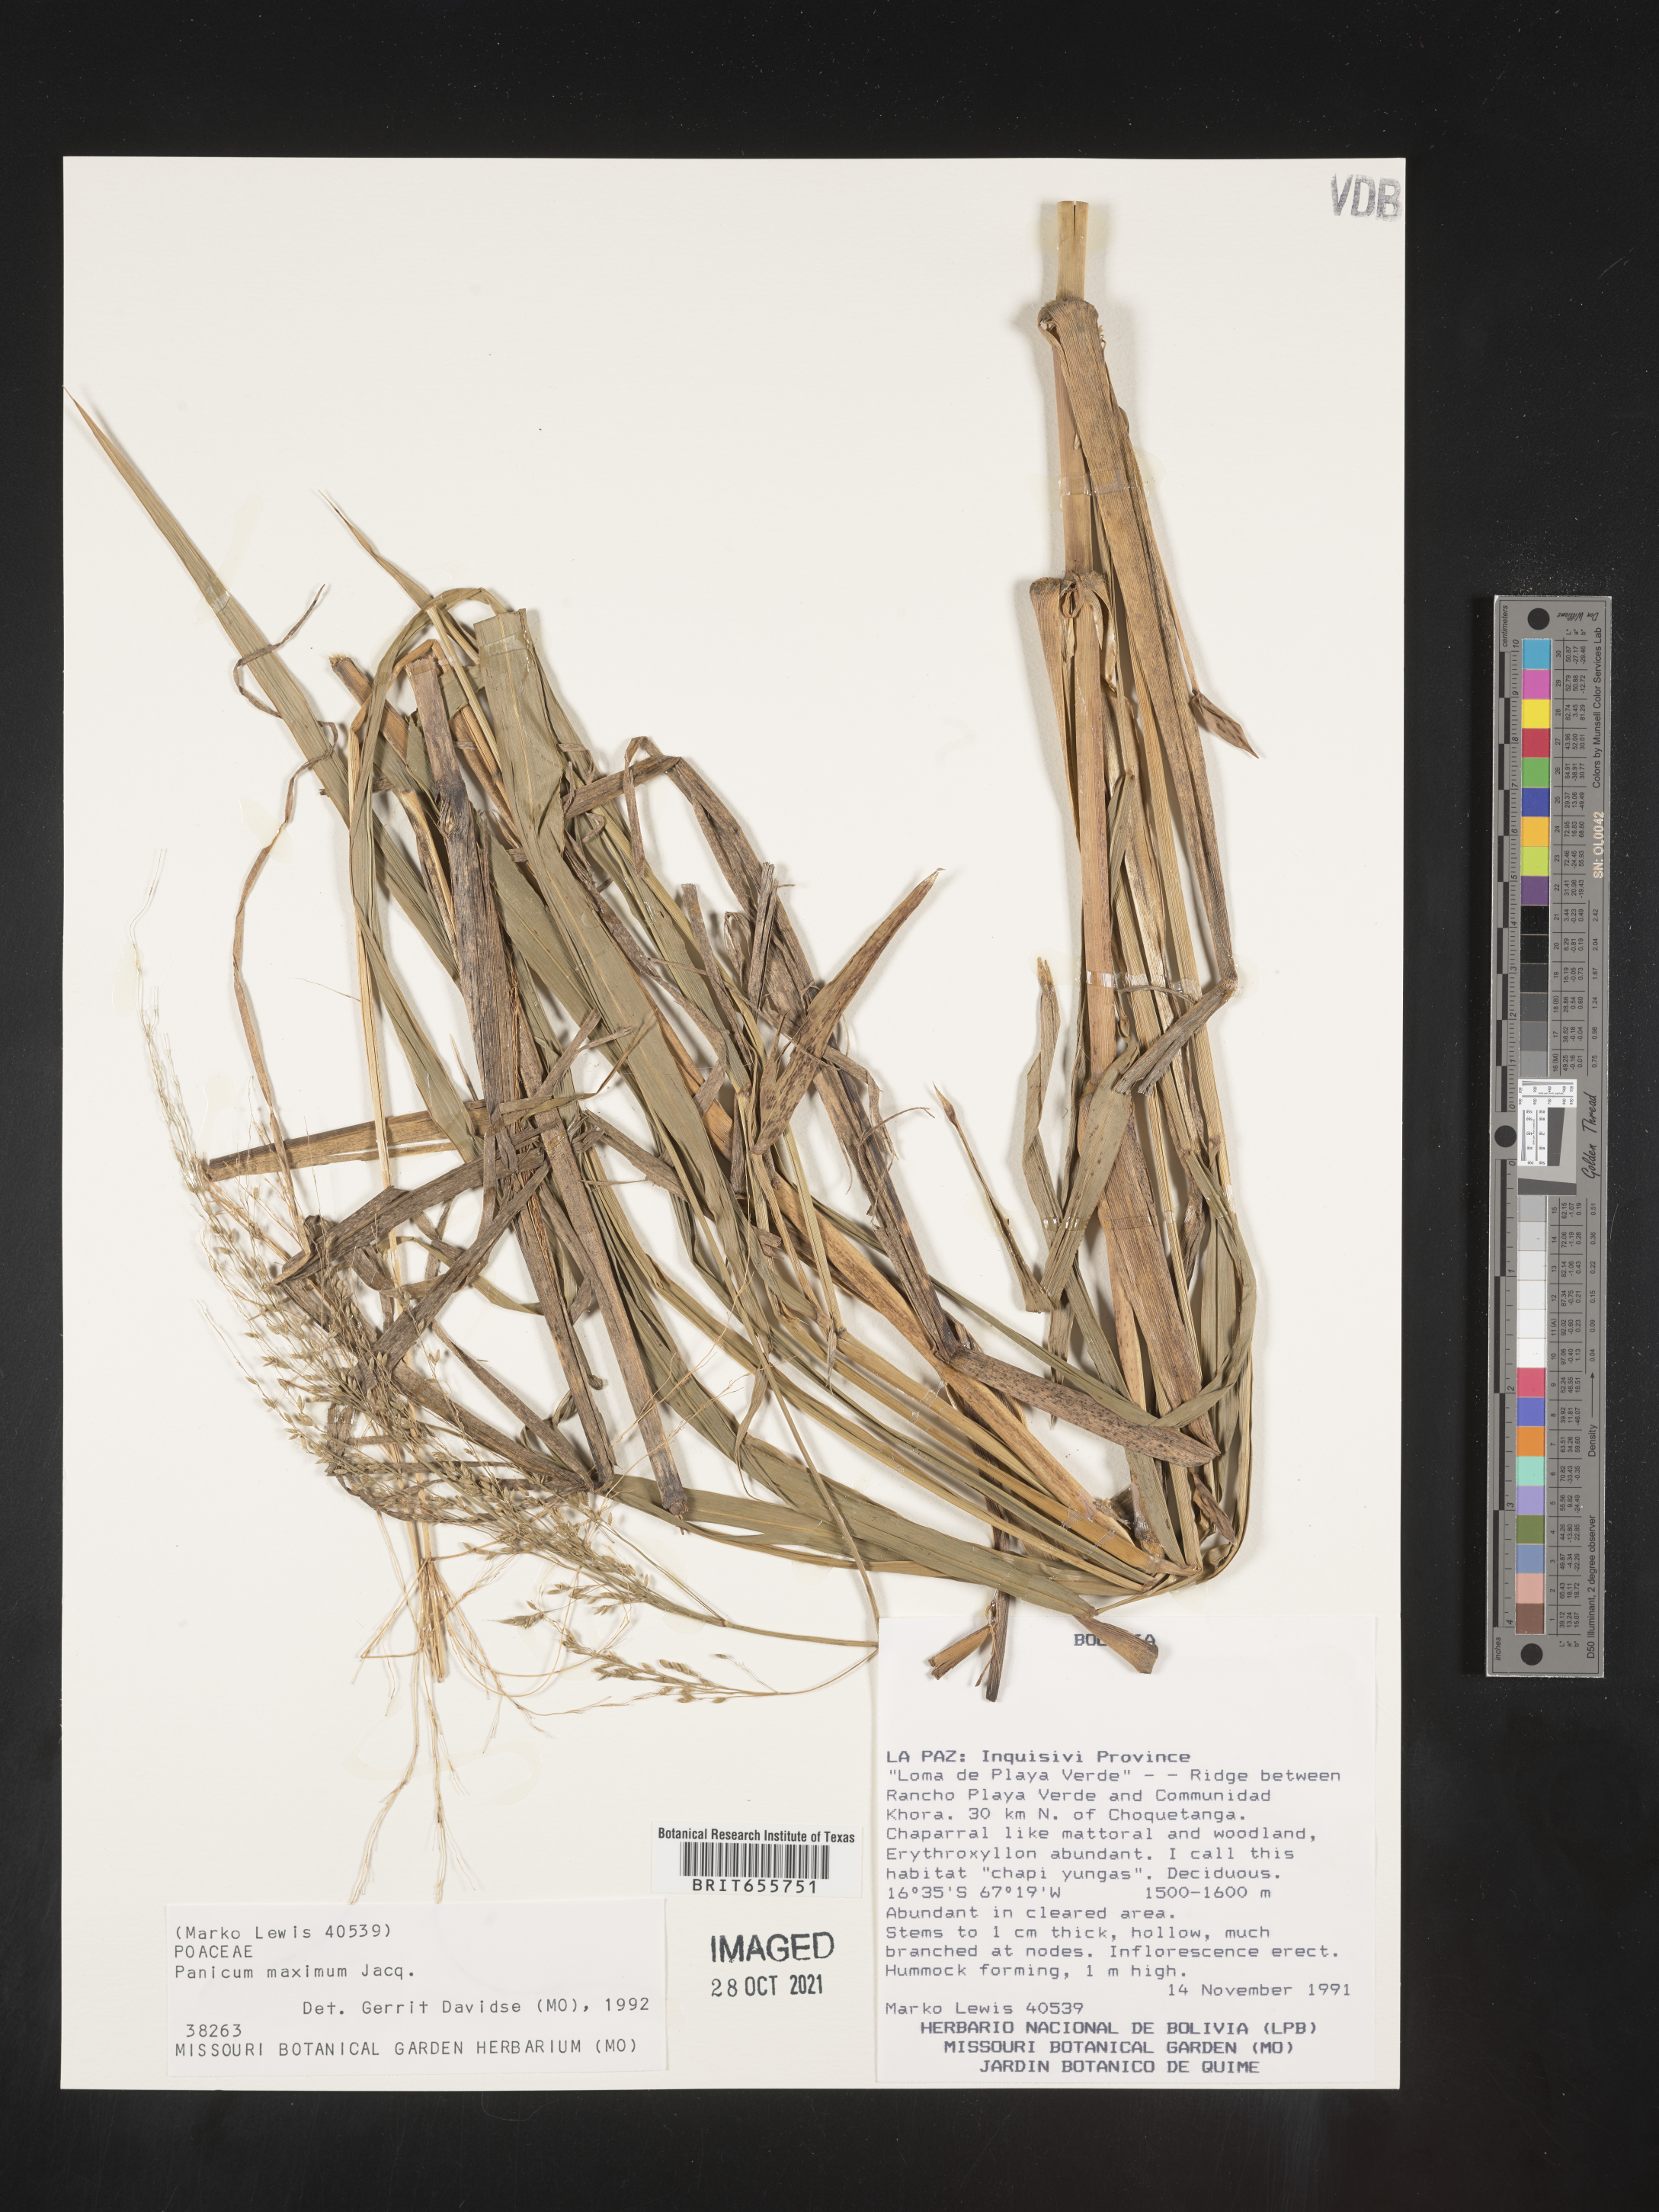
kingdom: Plantae
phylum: Tracheophyta
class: Liliopsida
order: Poales
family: Poaceae
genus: Panicum
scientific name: Panicum
